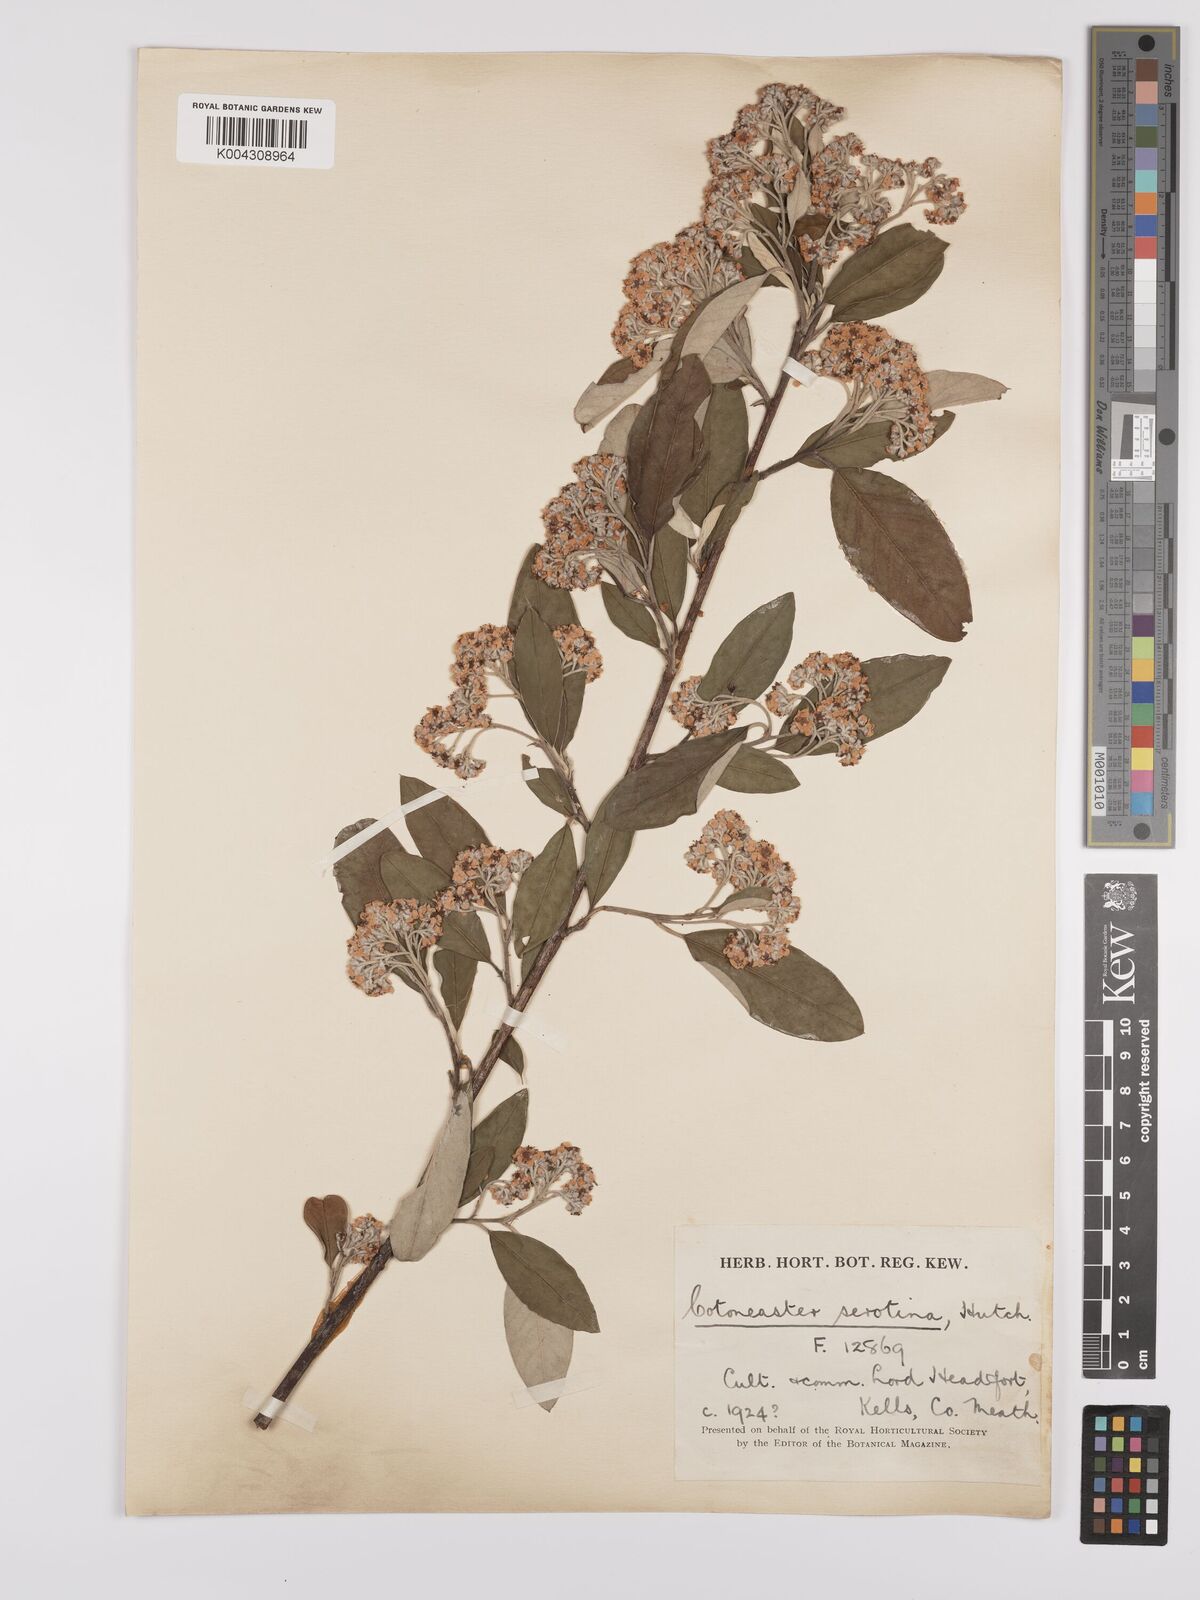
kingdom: Plantae
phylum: Tracheophyta
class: Magnoliopsida
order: Rosales
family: Rosaceae
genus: Cotoneaster
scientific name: Cotoneaster pannosus
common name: Silverleaf cotoneaster
